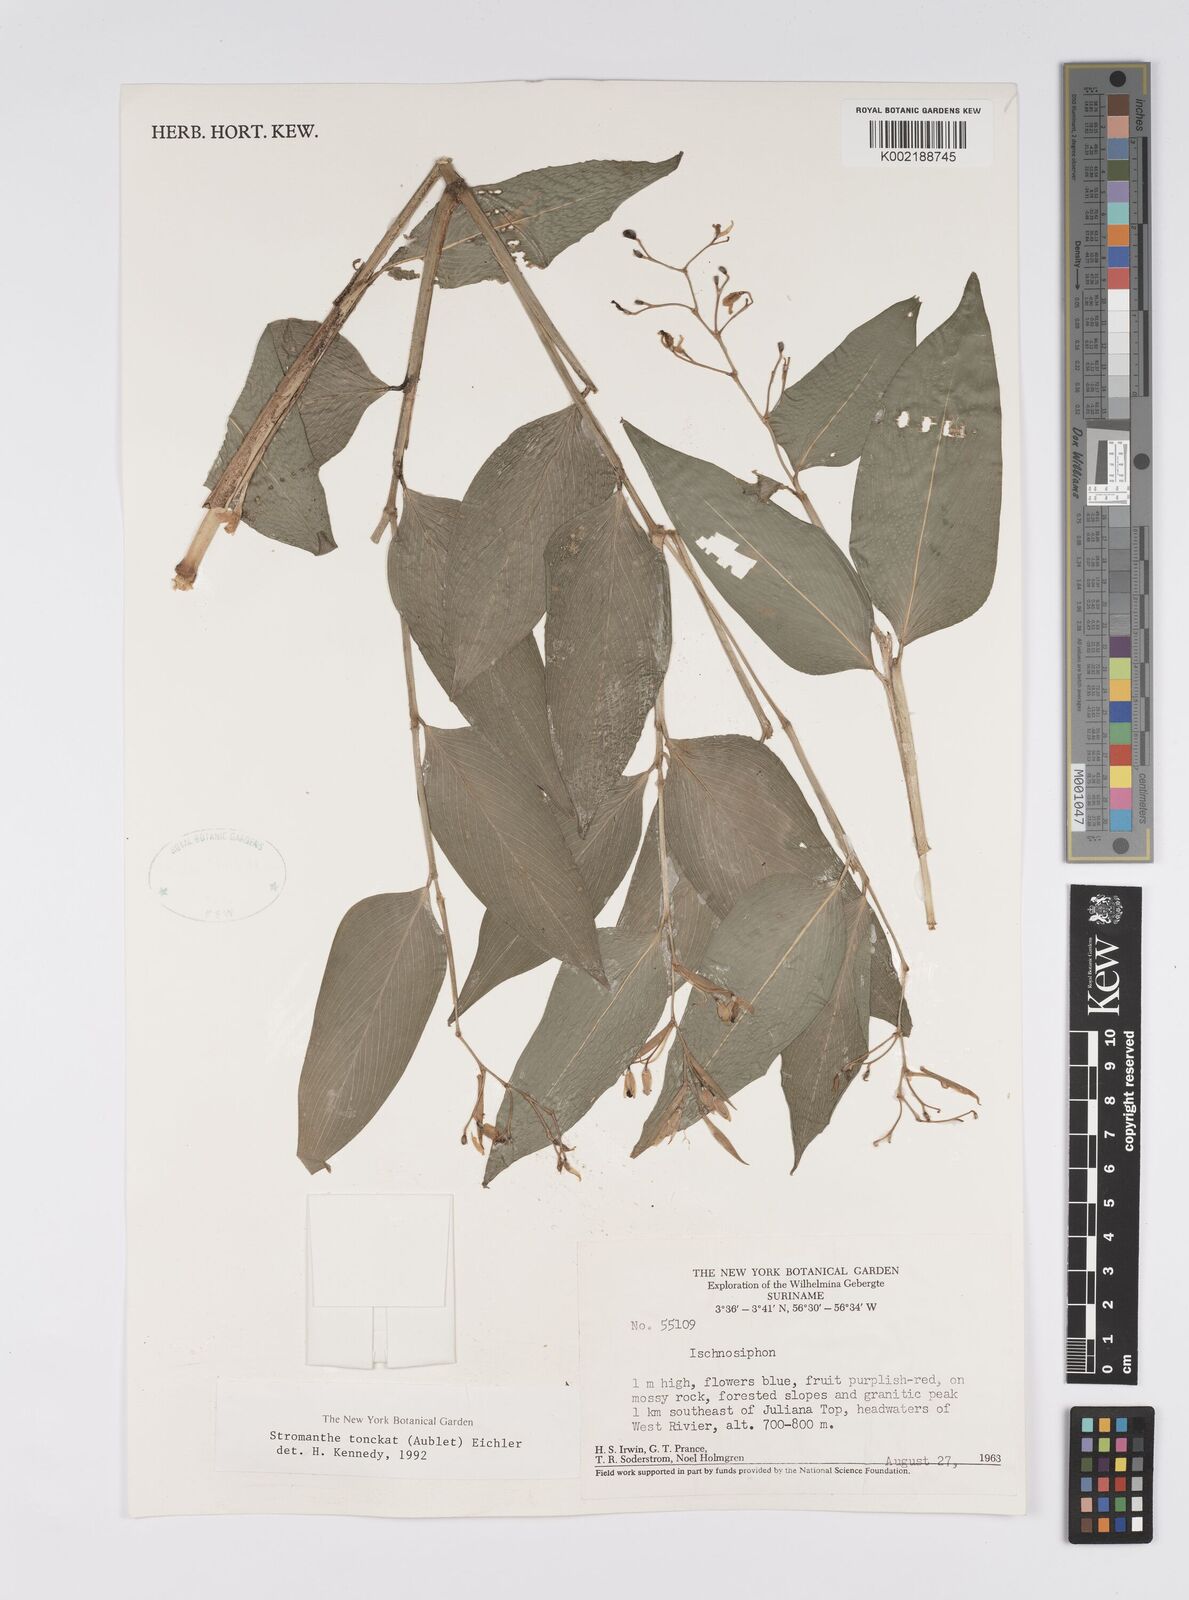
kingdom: Plantae
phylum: Tracheophyta
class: Liliopsida
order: Zingiberales
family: Marantaceae
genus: Stromanthe
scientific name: Stromanthe tonckat
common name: Stromanthe
